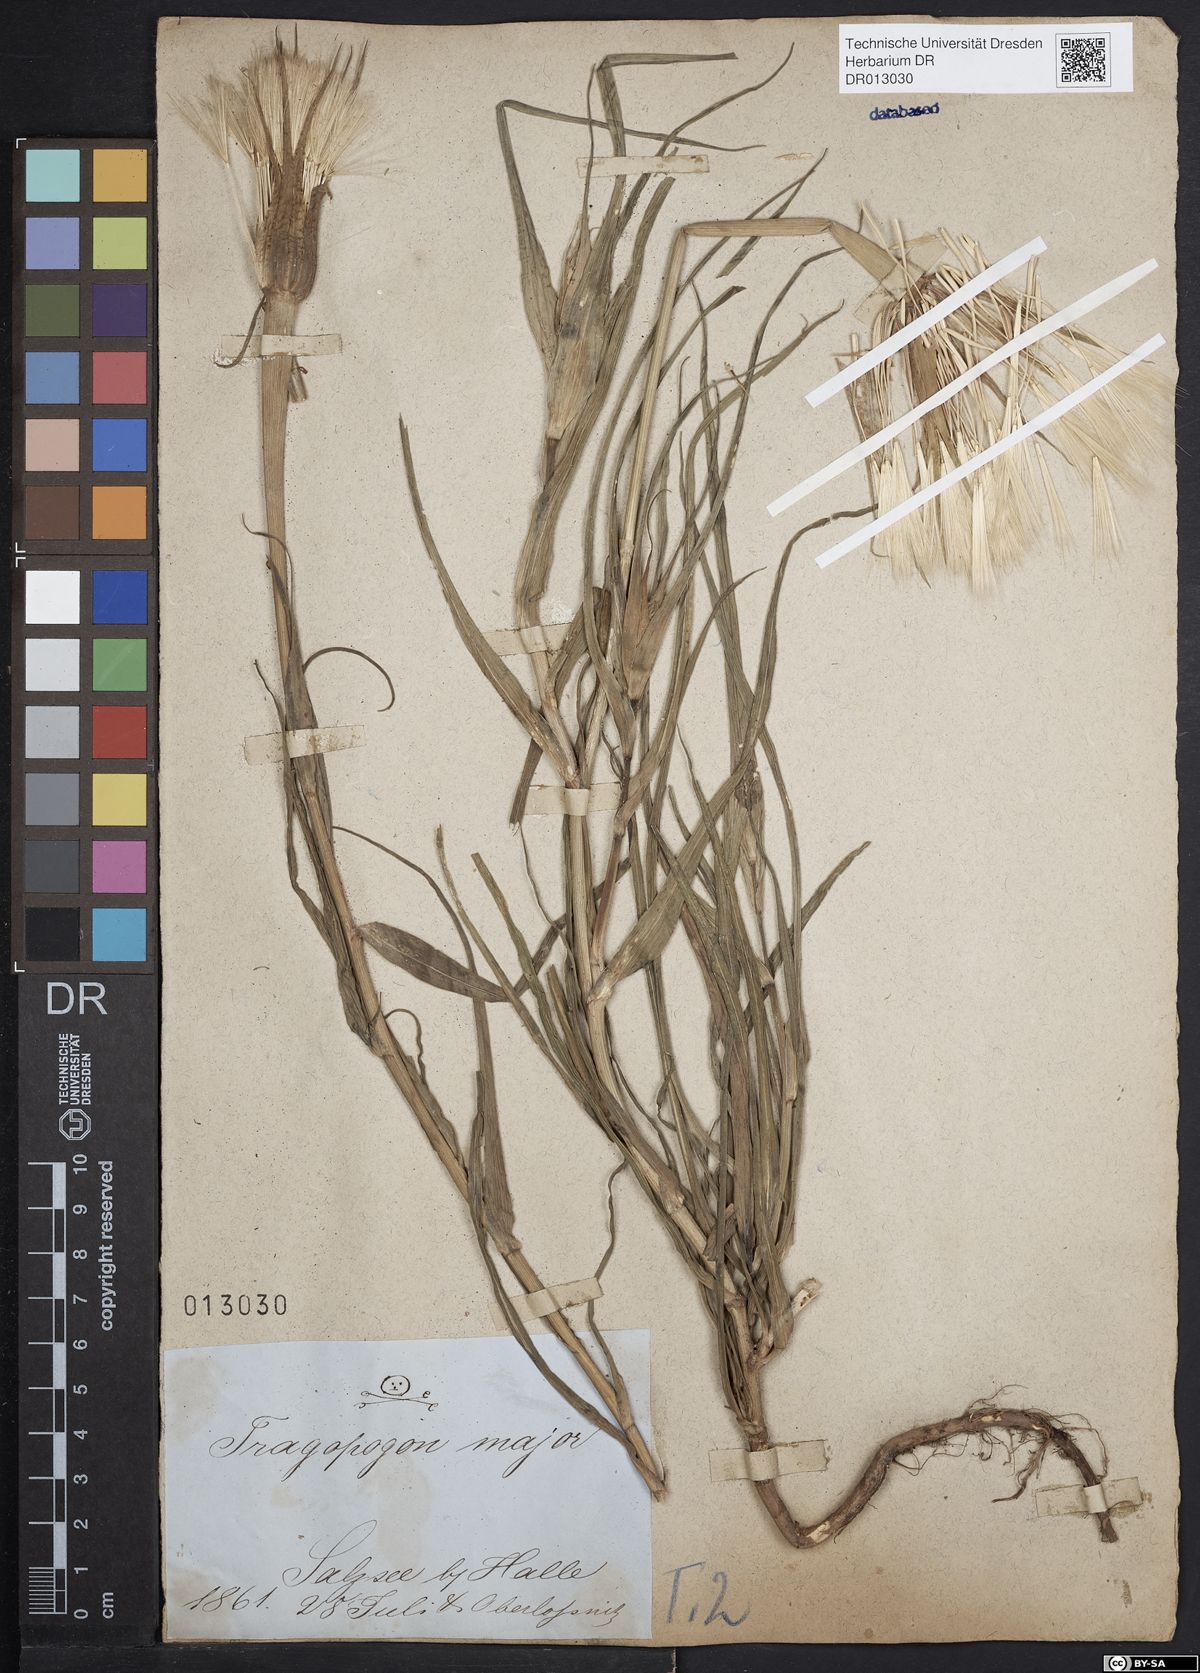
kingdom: Plantae
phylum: Tracheophyta
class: Magnoliopsida
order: Asterales
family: Asteraceae
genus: Tragopogon
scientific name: Tragopogon dubius
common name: Yellow salsify
